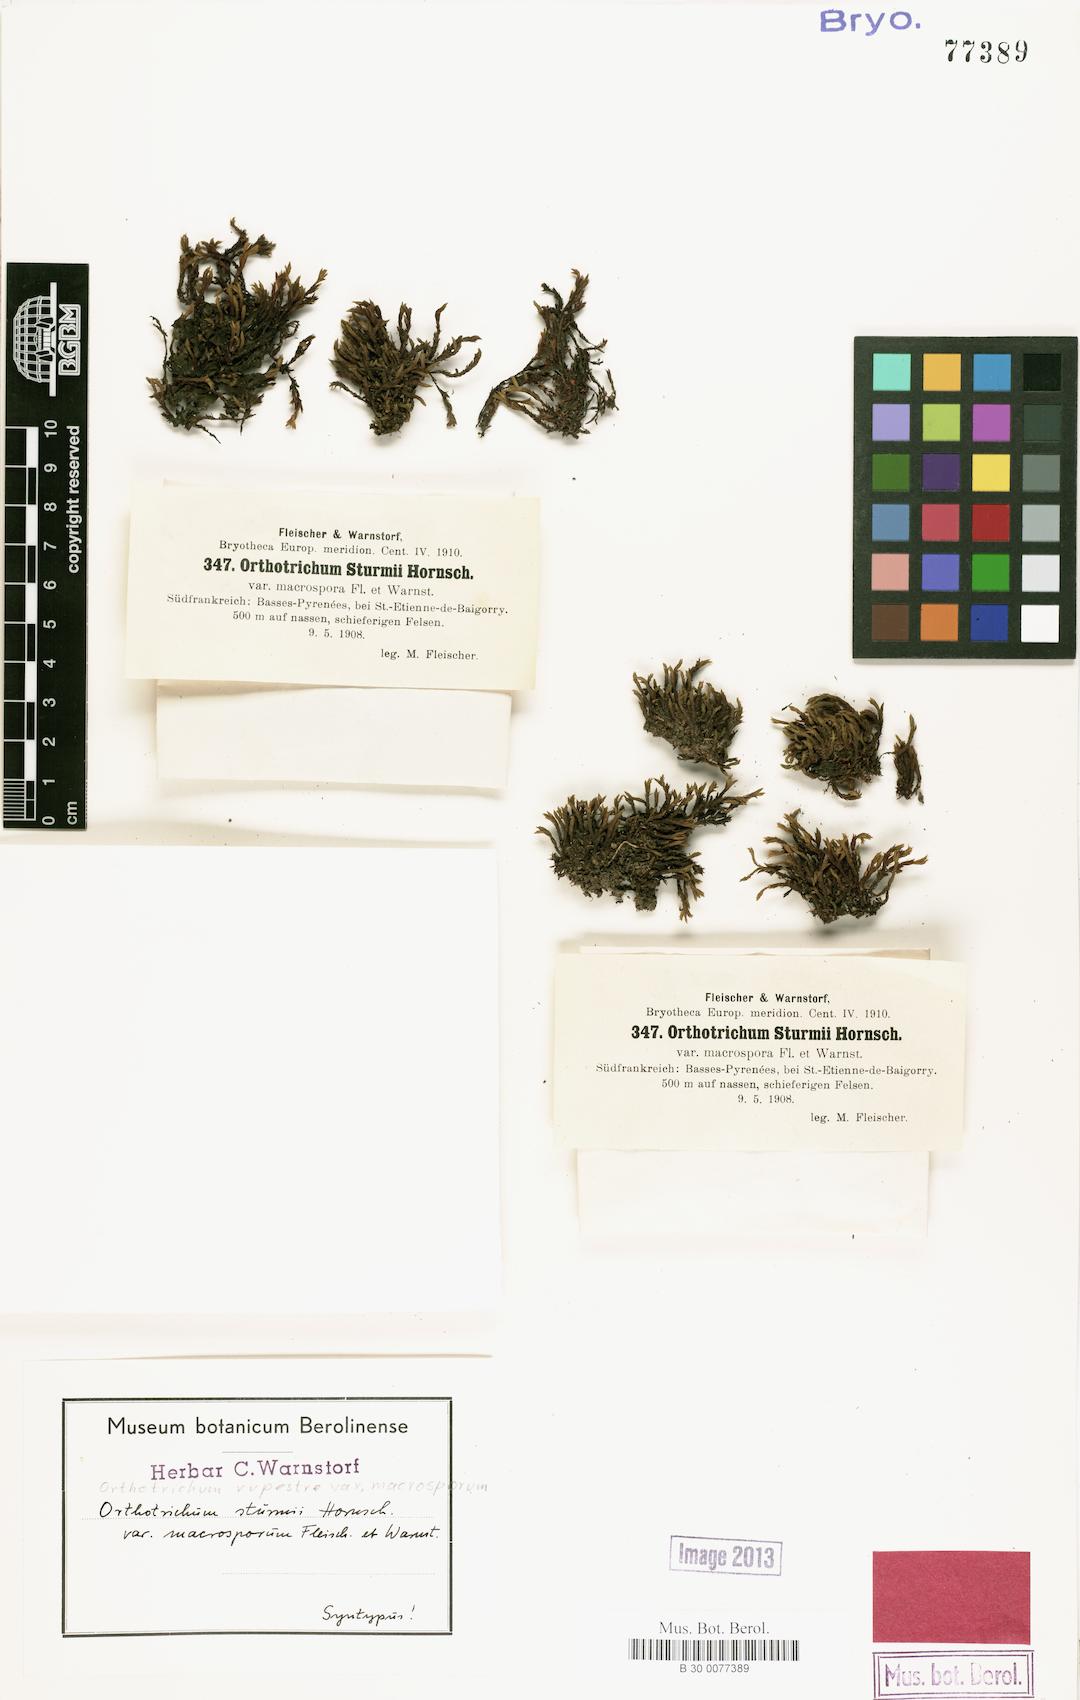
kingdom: Plantae
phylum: Bryophyta
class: Bryopsida
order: Orthotrichales
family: Orthotrichaceae
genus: Lewinskya
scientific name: Lewinskya rupestris
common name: Rock bristle-moss
